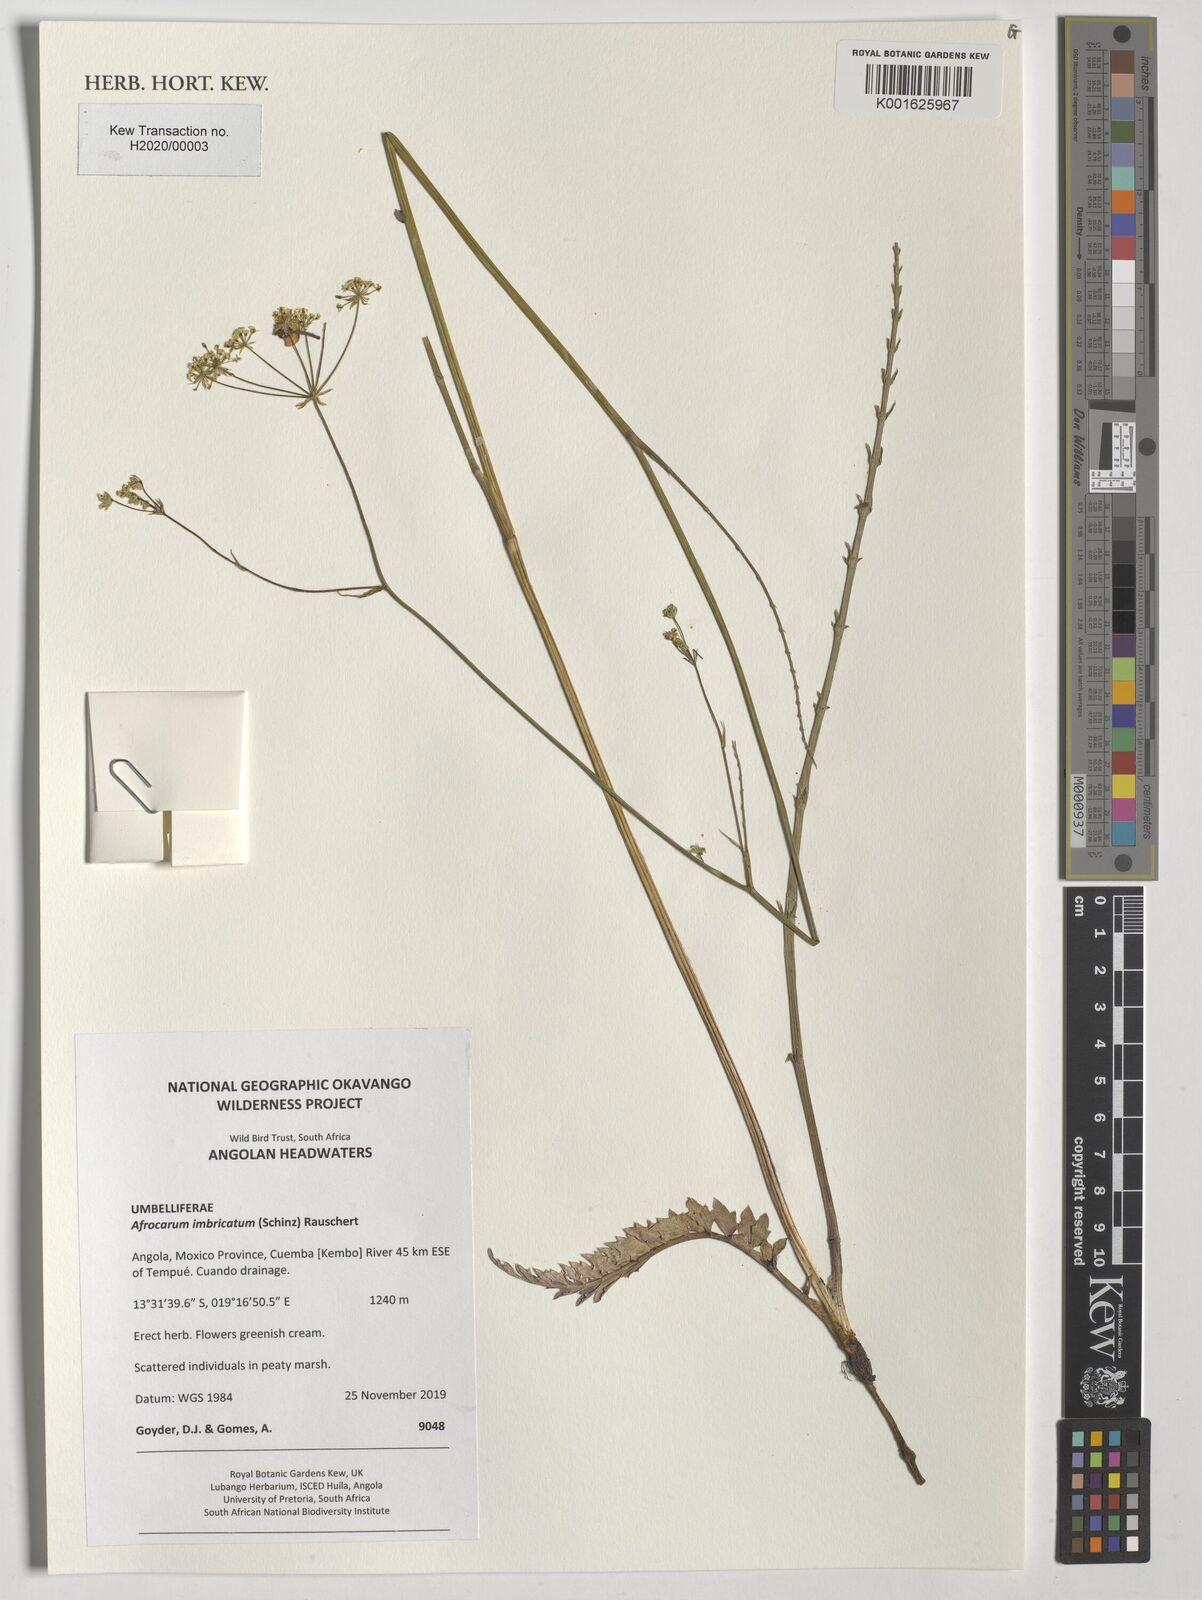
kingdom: Plantae
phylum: Tracheophyta
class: Magnoliopsida
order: Apiales
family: Apiaceae
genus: Berula
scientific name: Berula imbricata
